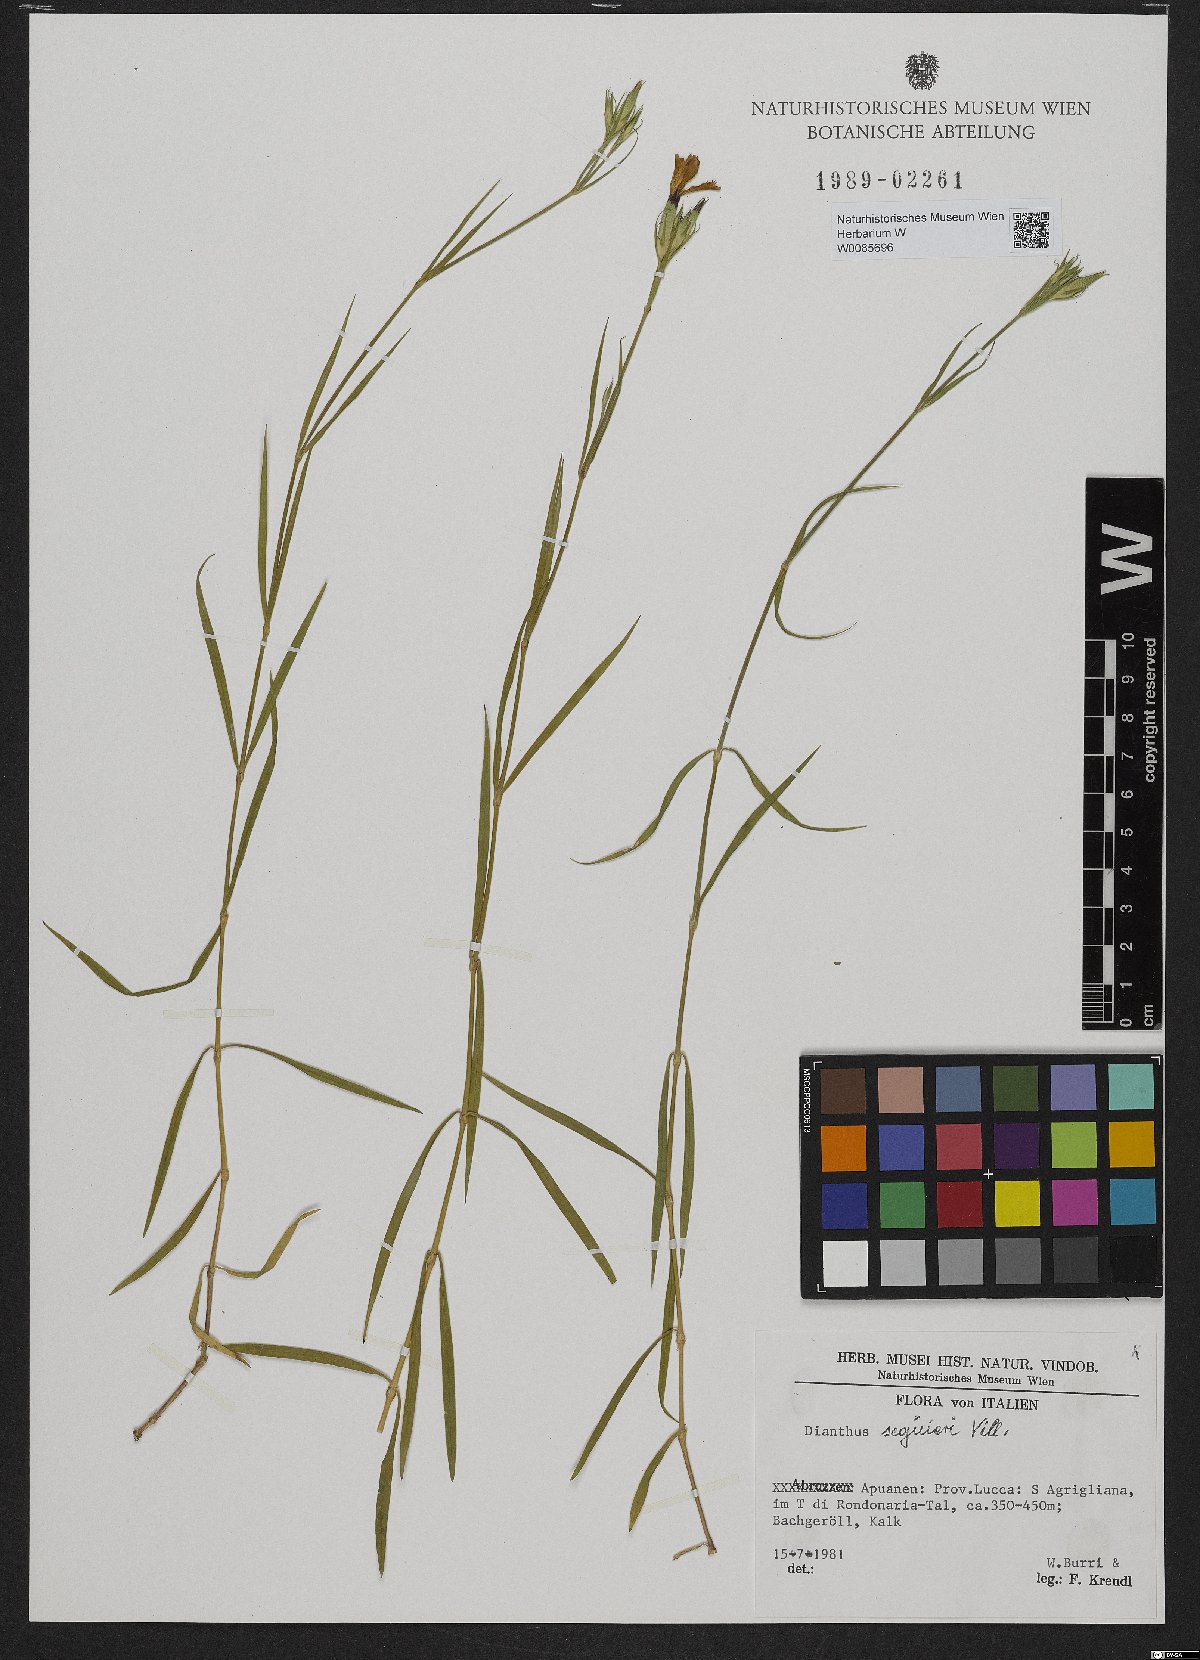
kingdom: Plantae
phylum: Tracheophyta
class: Magnoliopsida
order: Caryophyllales
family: Caryophyllaceae
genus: Dianthus
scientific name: Dianthus seguieri
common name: Ragged pink
